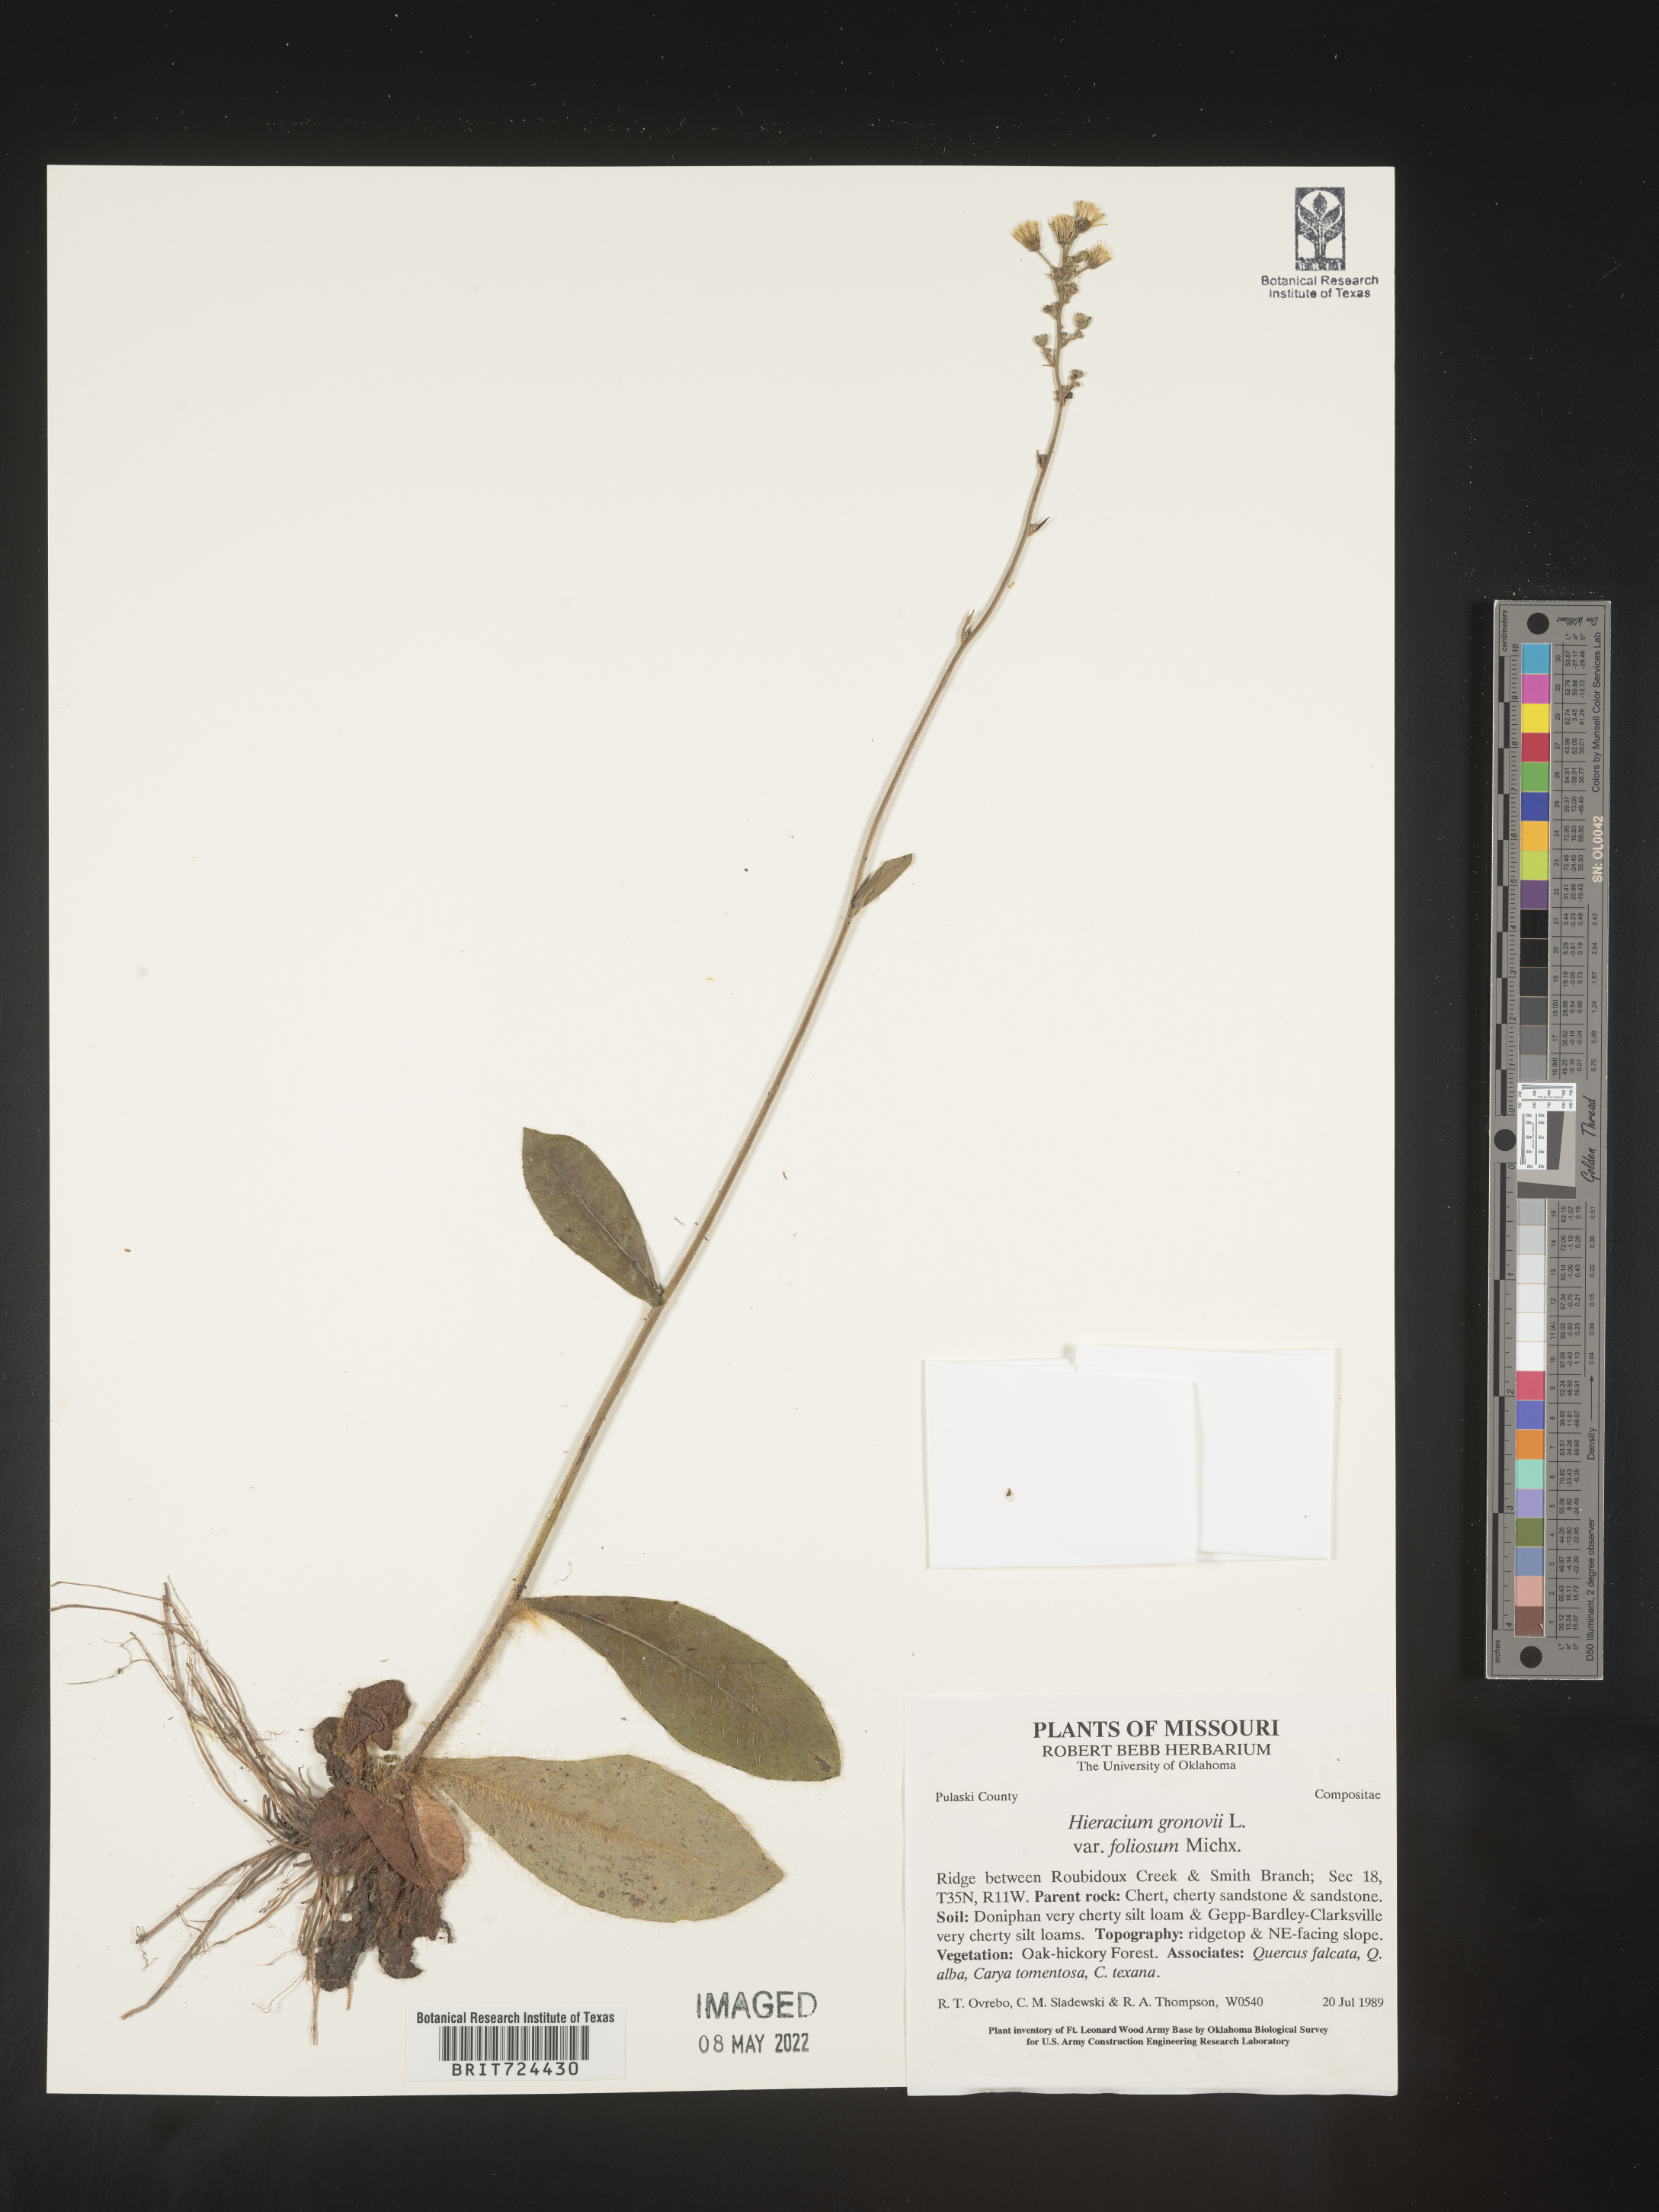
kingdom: Plantae
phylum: Tracheophyta
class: Magnoliopsida
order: Asterales
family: Asteraceae
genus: Hieracium
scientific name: Hieracium gronovii
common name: Beaked hawkweed
